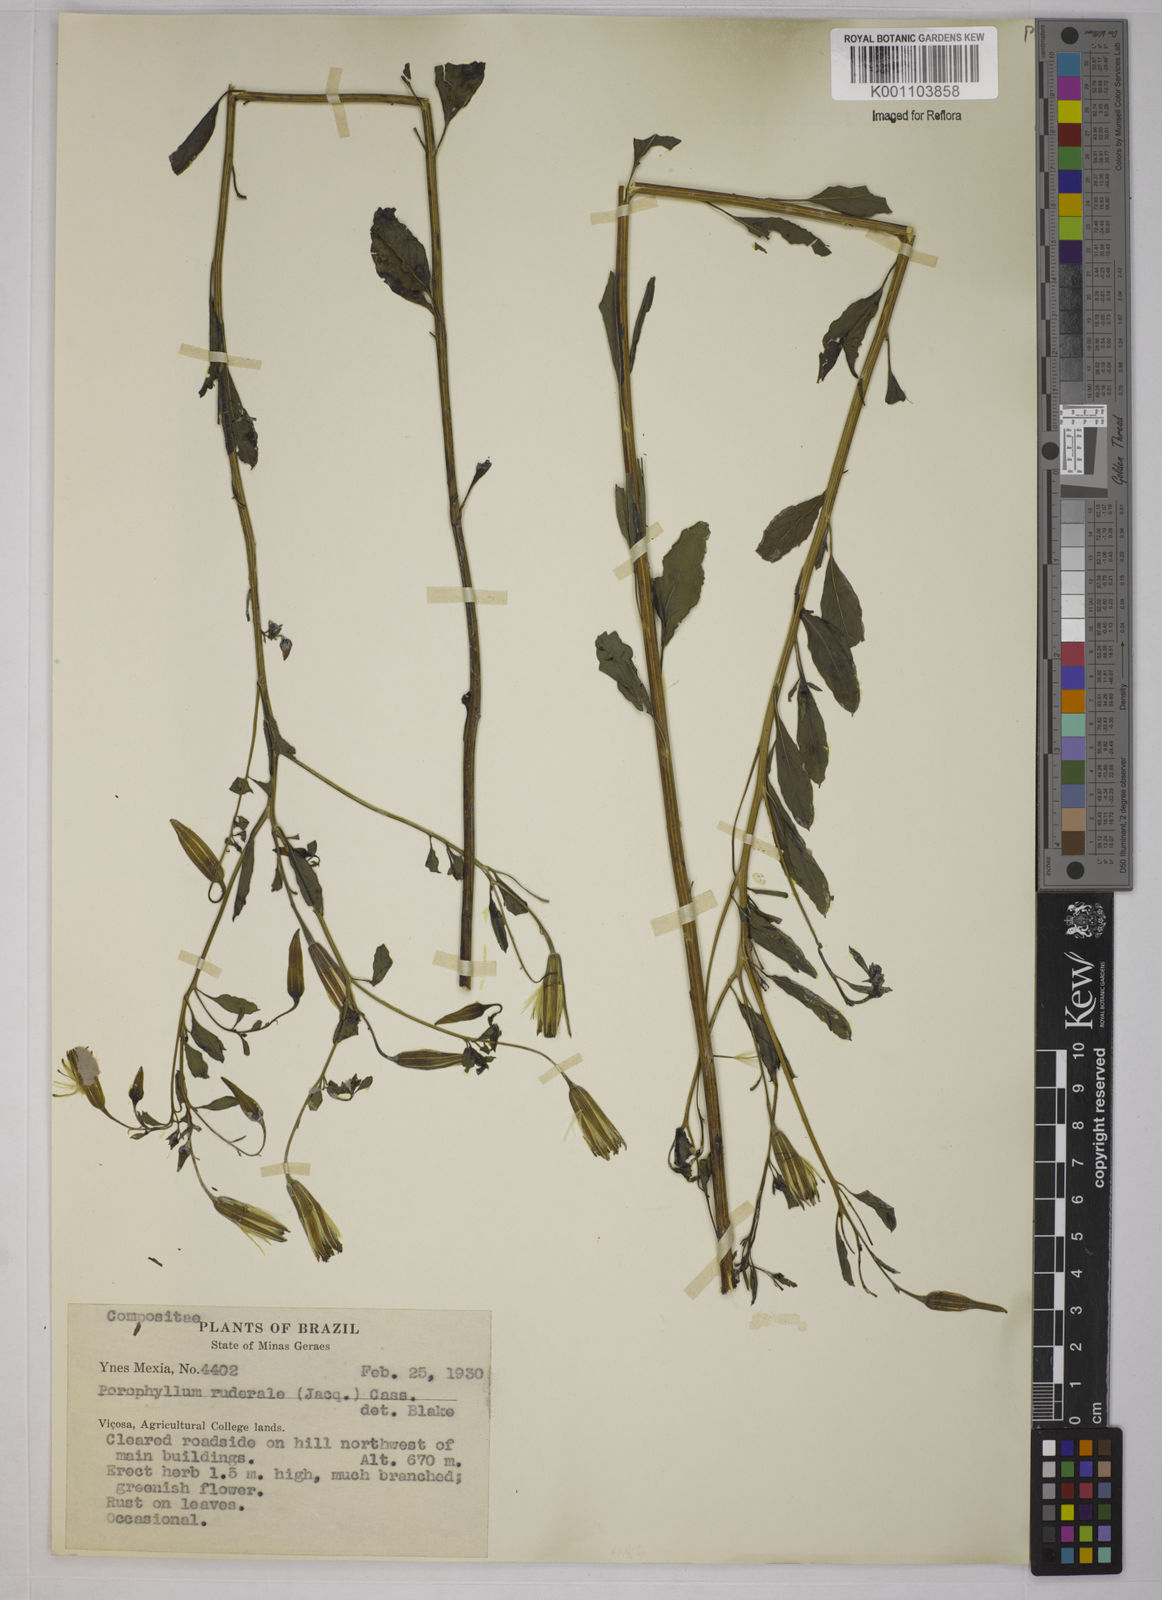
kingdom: Plantae
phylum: Tracheophyta
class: Magnoliopsida
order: Asterales
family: Asteraceae
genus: Porophyllum
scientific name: Porophyllum ruderale
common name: Yerba porosa
